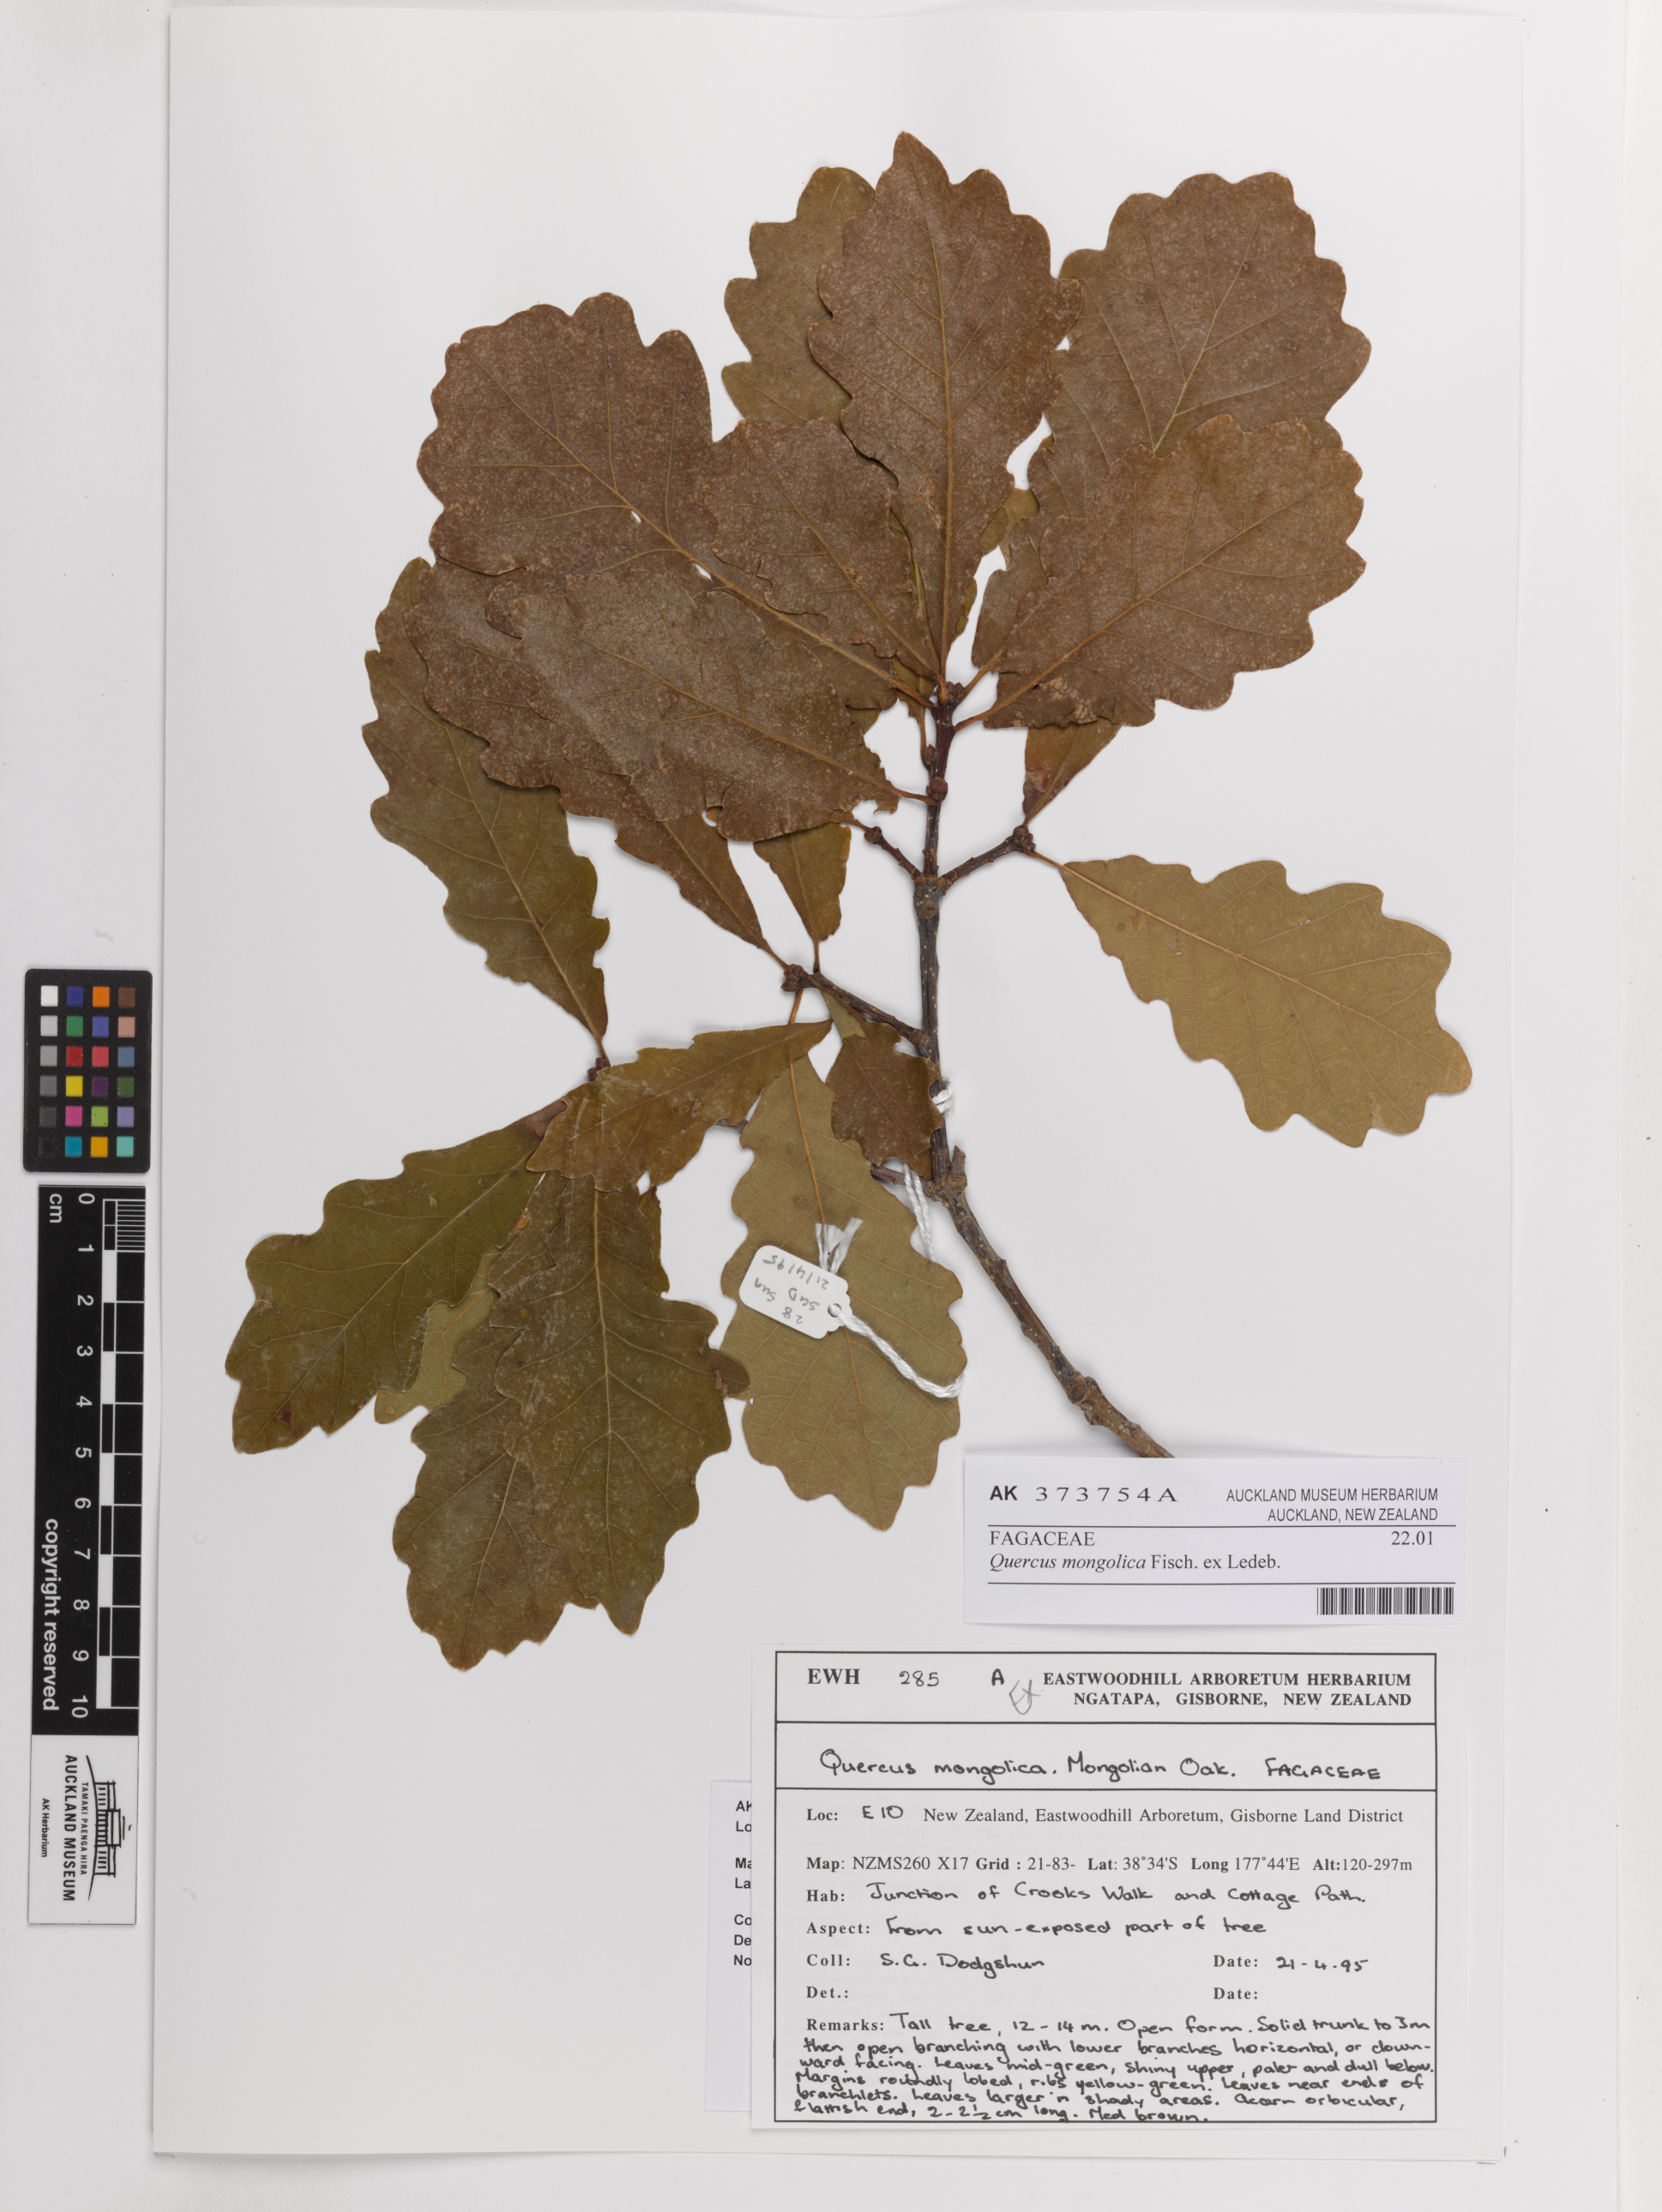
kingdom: Plantae
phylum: Tracheophyta
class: Magnoliopsida
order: Fagales
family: Fagaceae
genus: Quercus
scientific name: Quercus mongolica
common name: Mongolian oak
